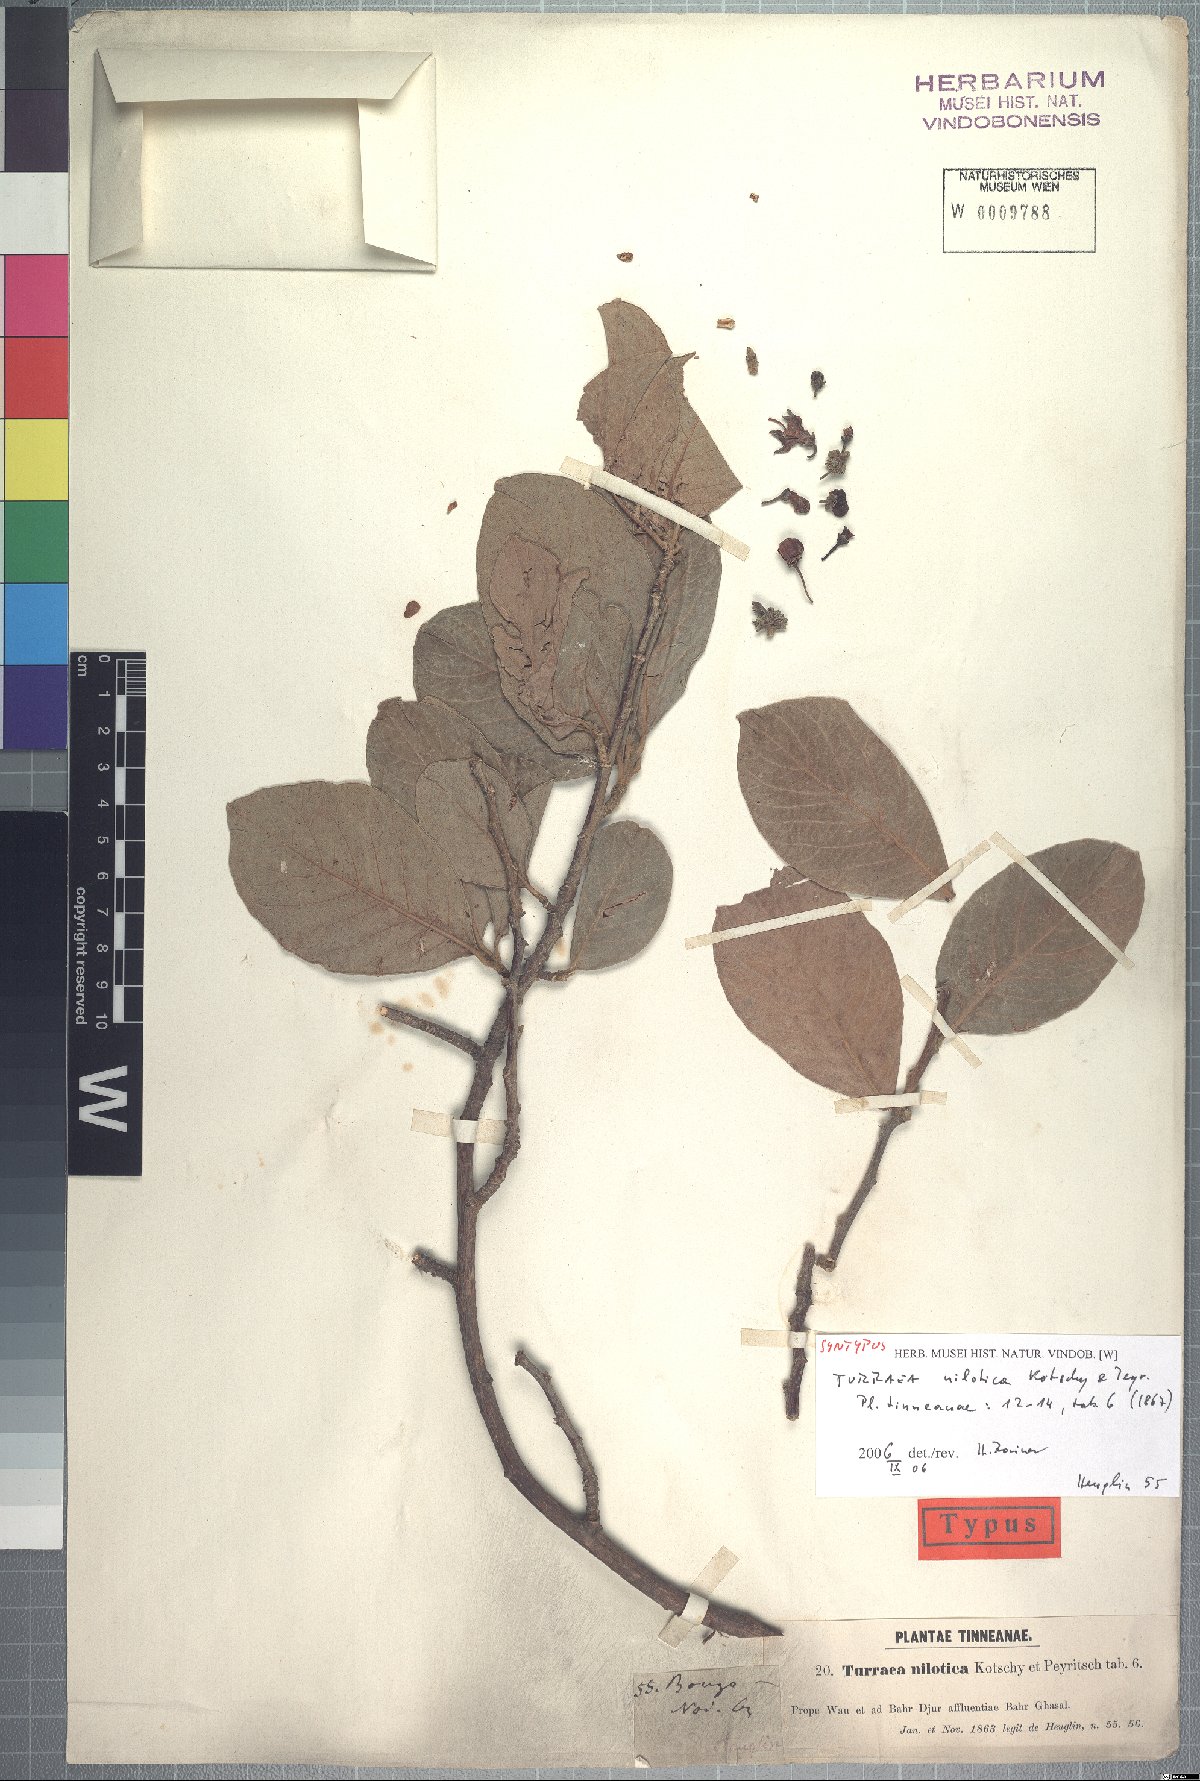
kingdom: Plantae
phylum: Tracheophyta
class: Magnoliopsida
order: Sapindales
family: Meliaceae
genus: Turraea
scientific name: Turraea nilotica
